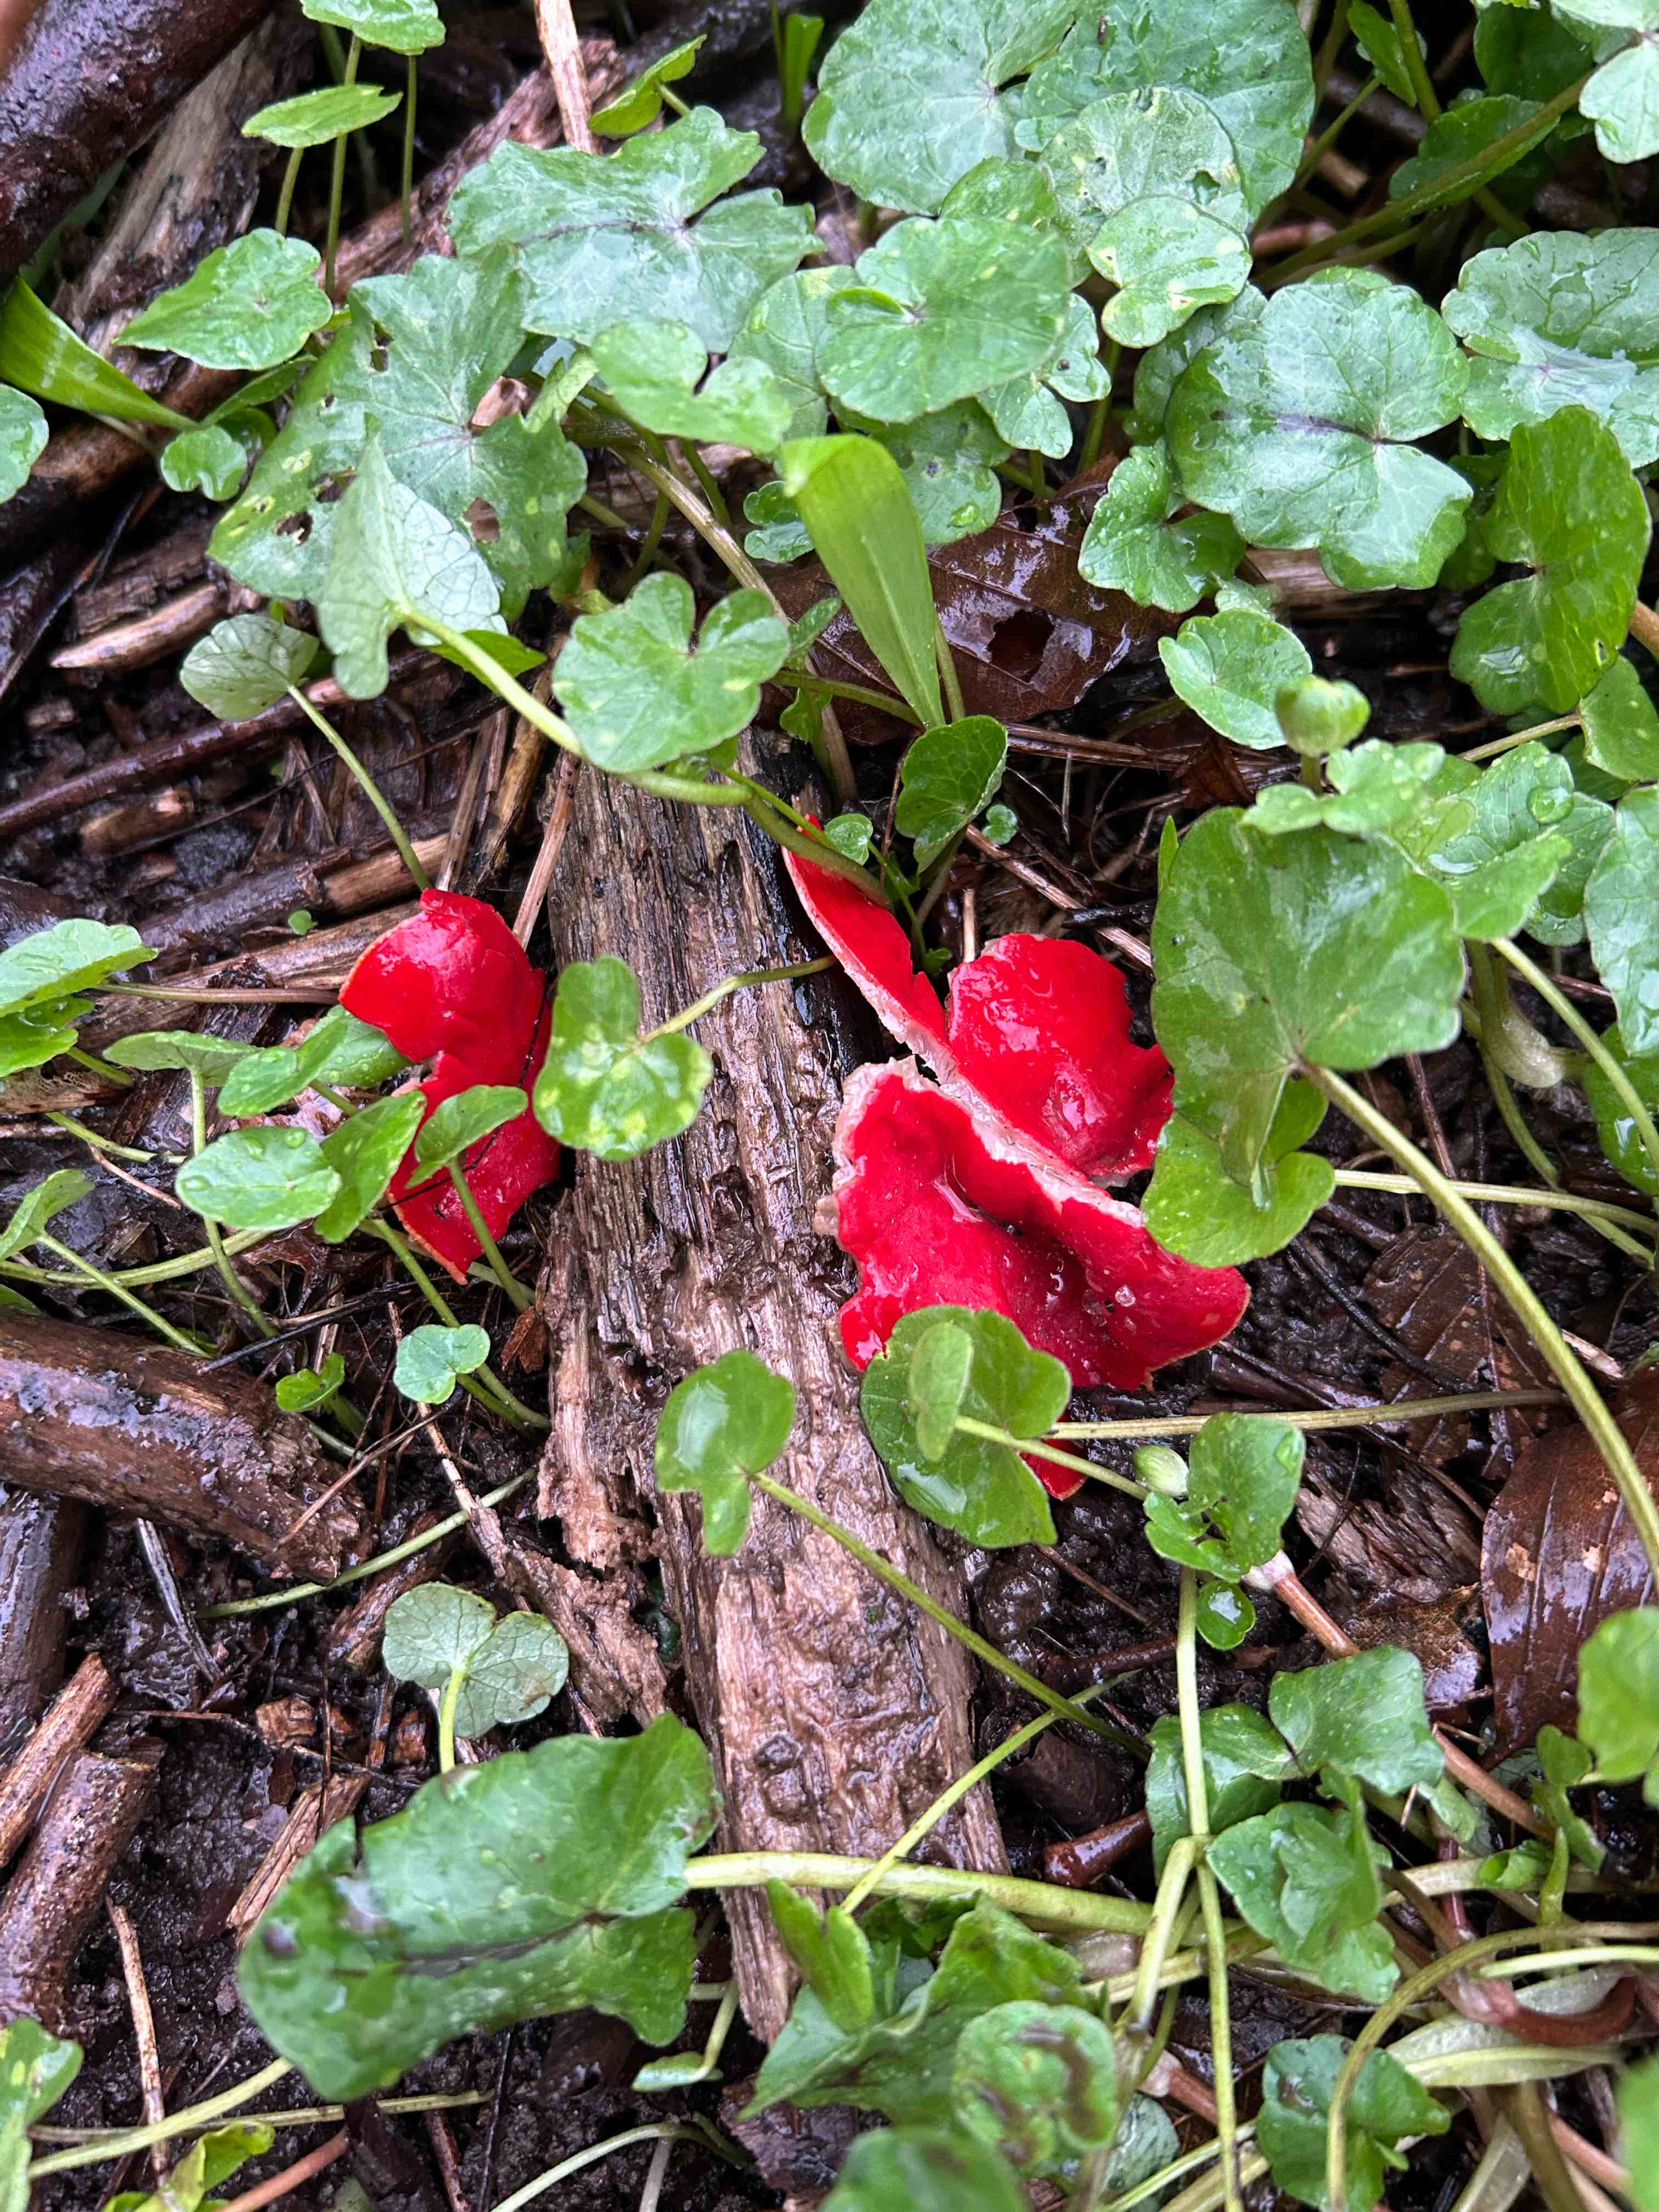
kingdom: Fungi
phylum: Ascomycota
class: Pezizomycetes
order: Pezizales
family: Sarcoscyphaceae
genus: Sarcoscypha
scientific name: Sarcoscypha austriaca
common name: krølhåret pragtbæger
